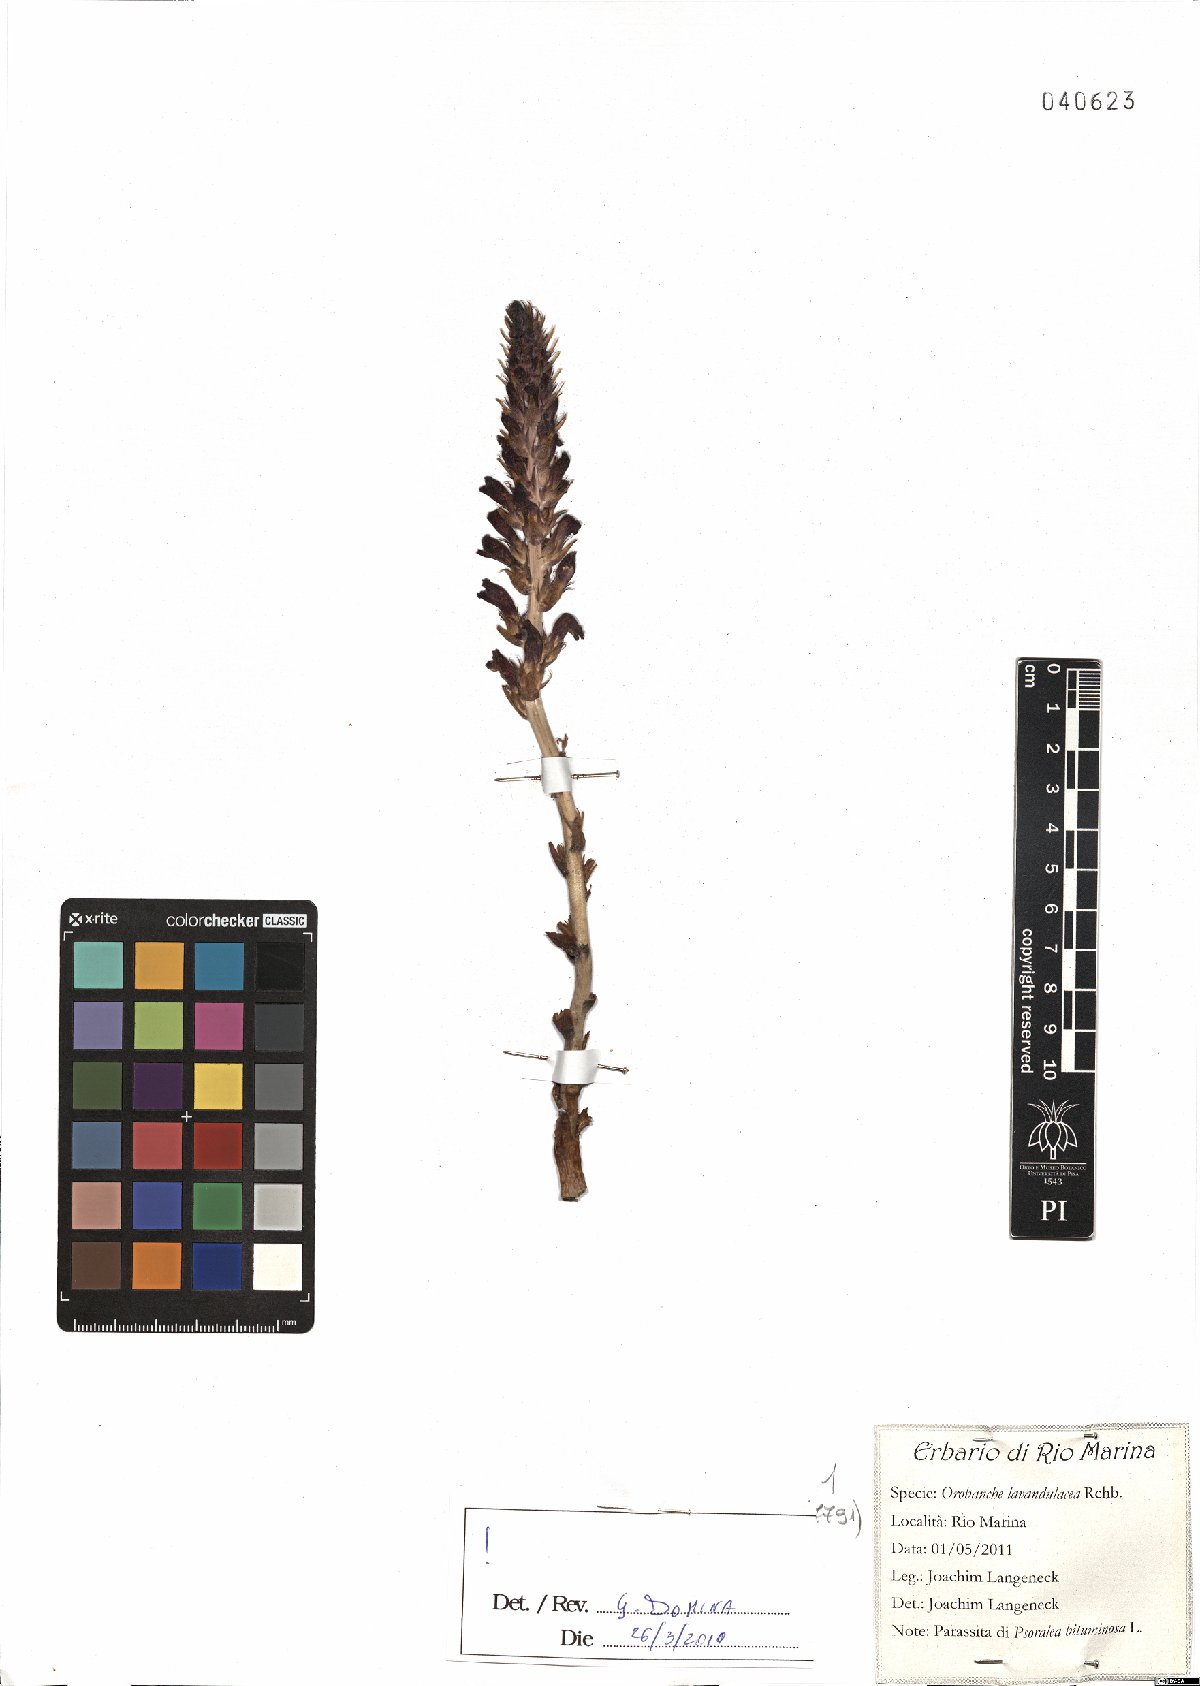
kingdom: Plantae
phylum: Tracheophyta
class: Magnoliopsida
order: Lamiales
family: Orobanchaceae
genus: Phelipanche
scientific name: Phelipanche lavandulacea
